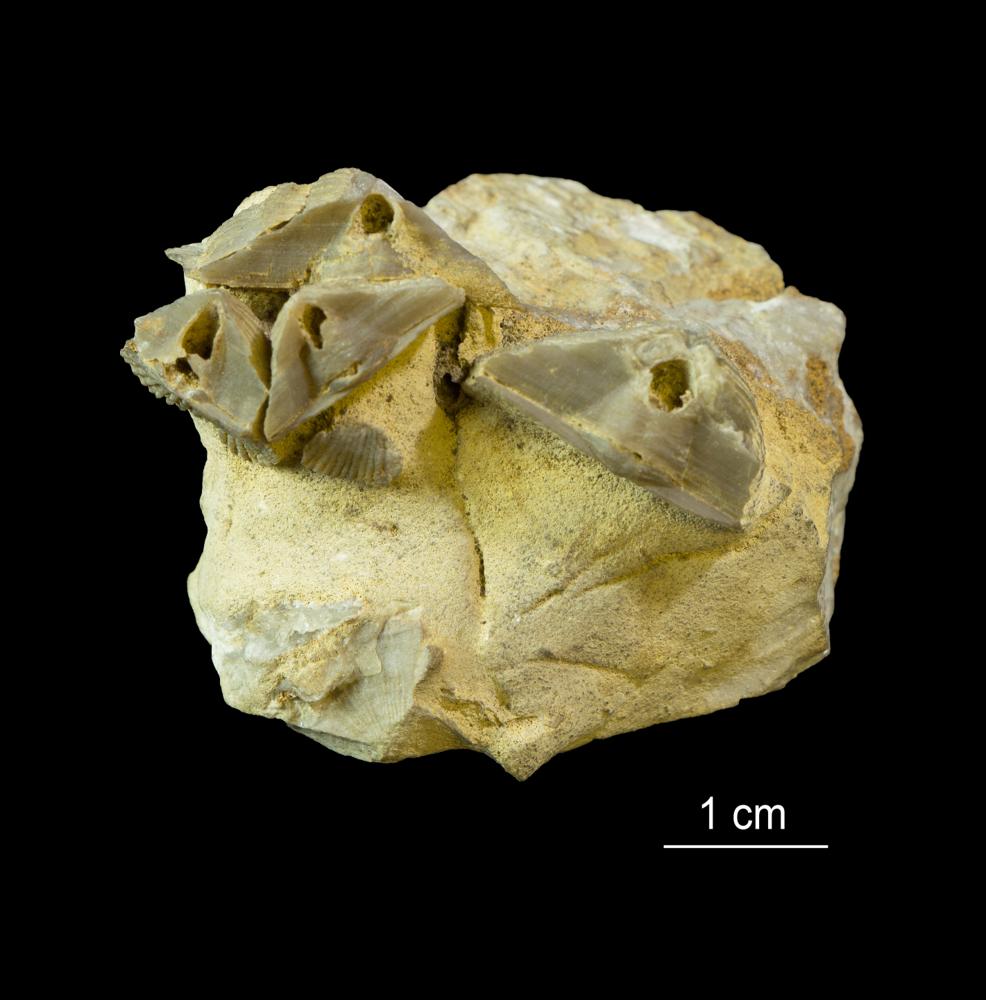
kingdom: Animalia
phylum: Brachiopoda
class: Rhynchonellata
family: Clitambonitidae
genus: Vellamo
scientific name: Vellamo wesenbergiensis
